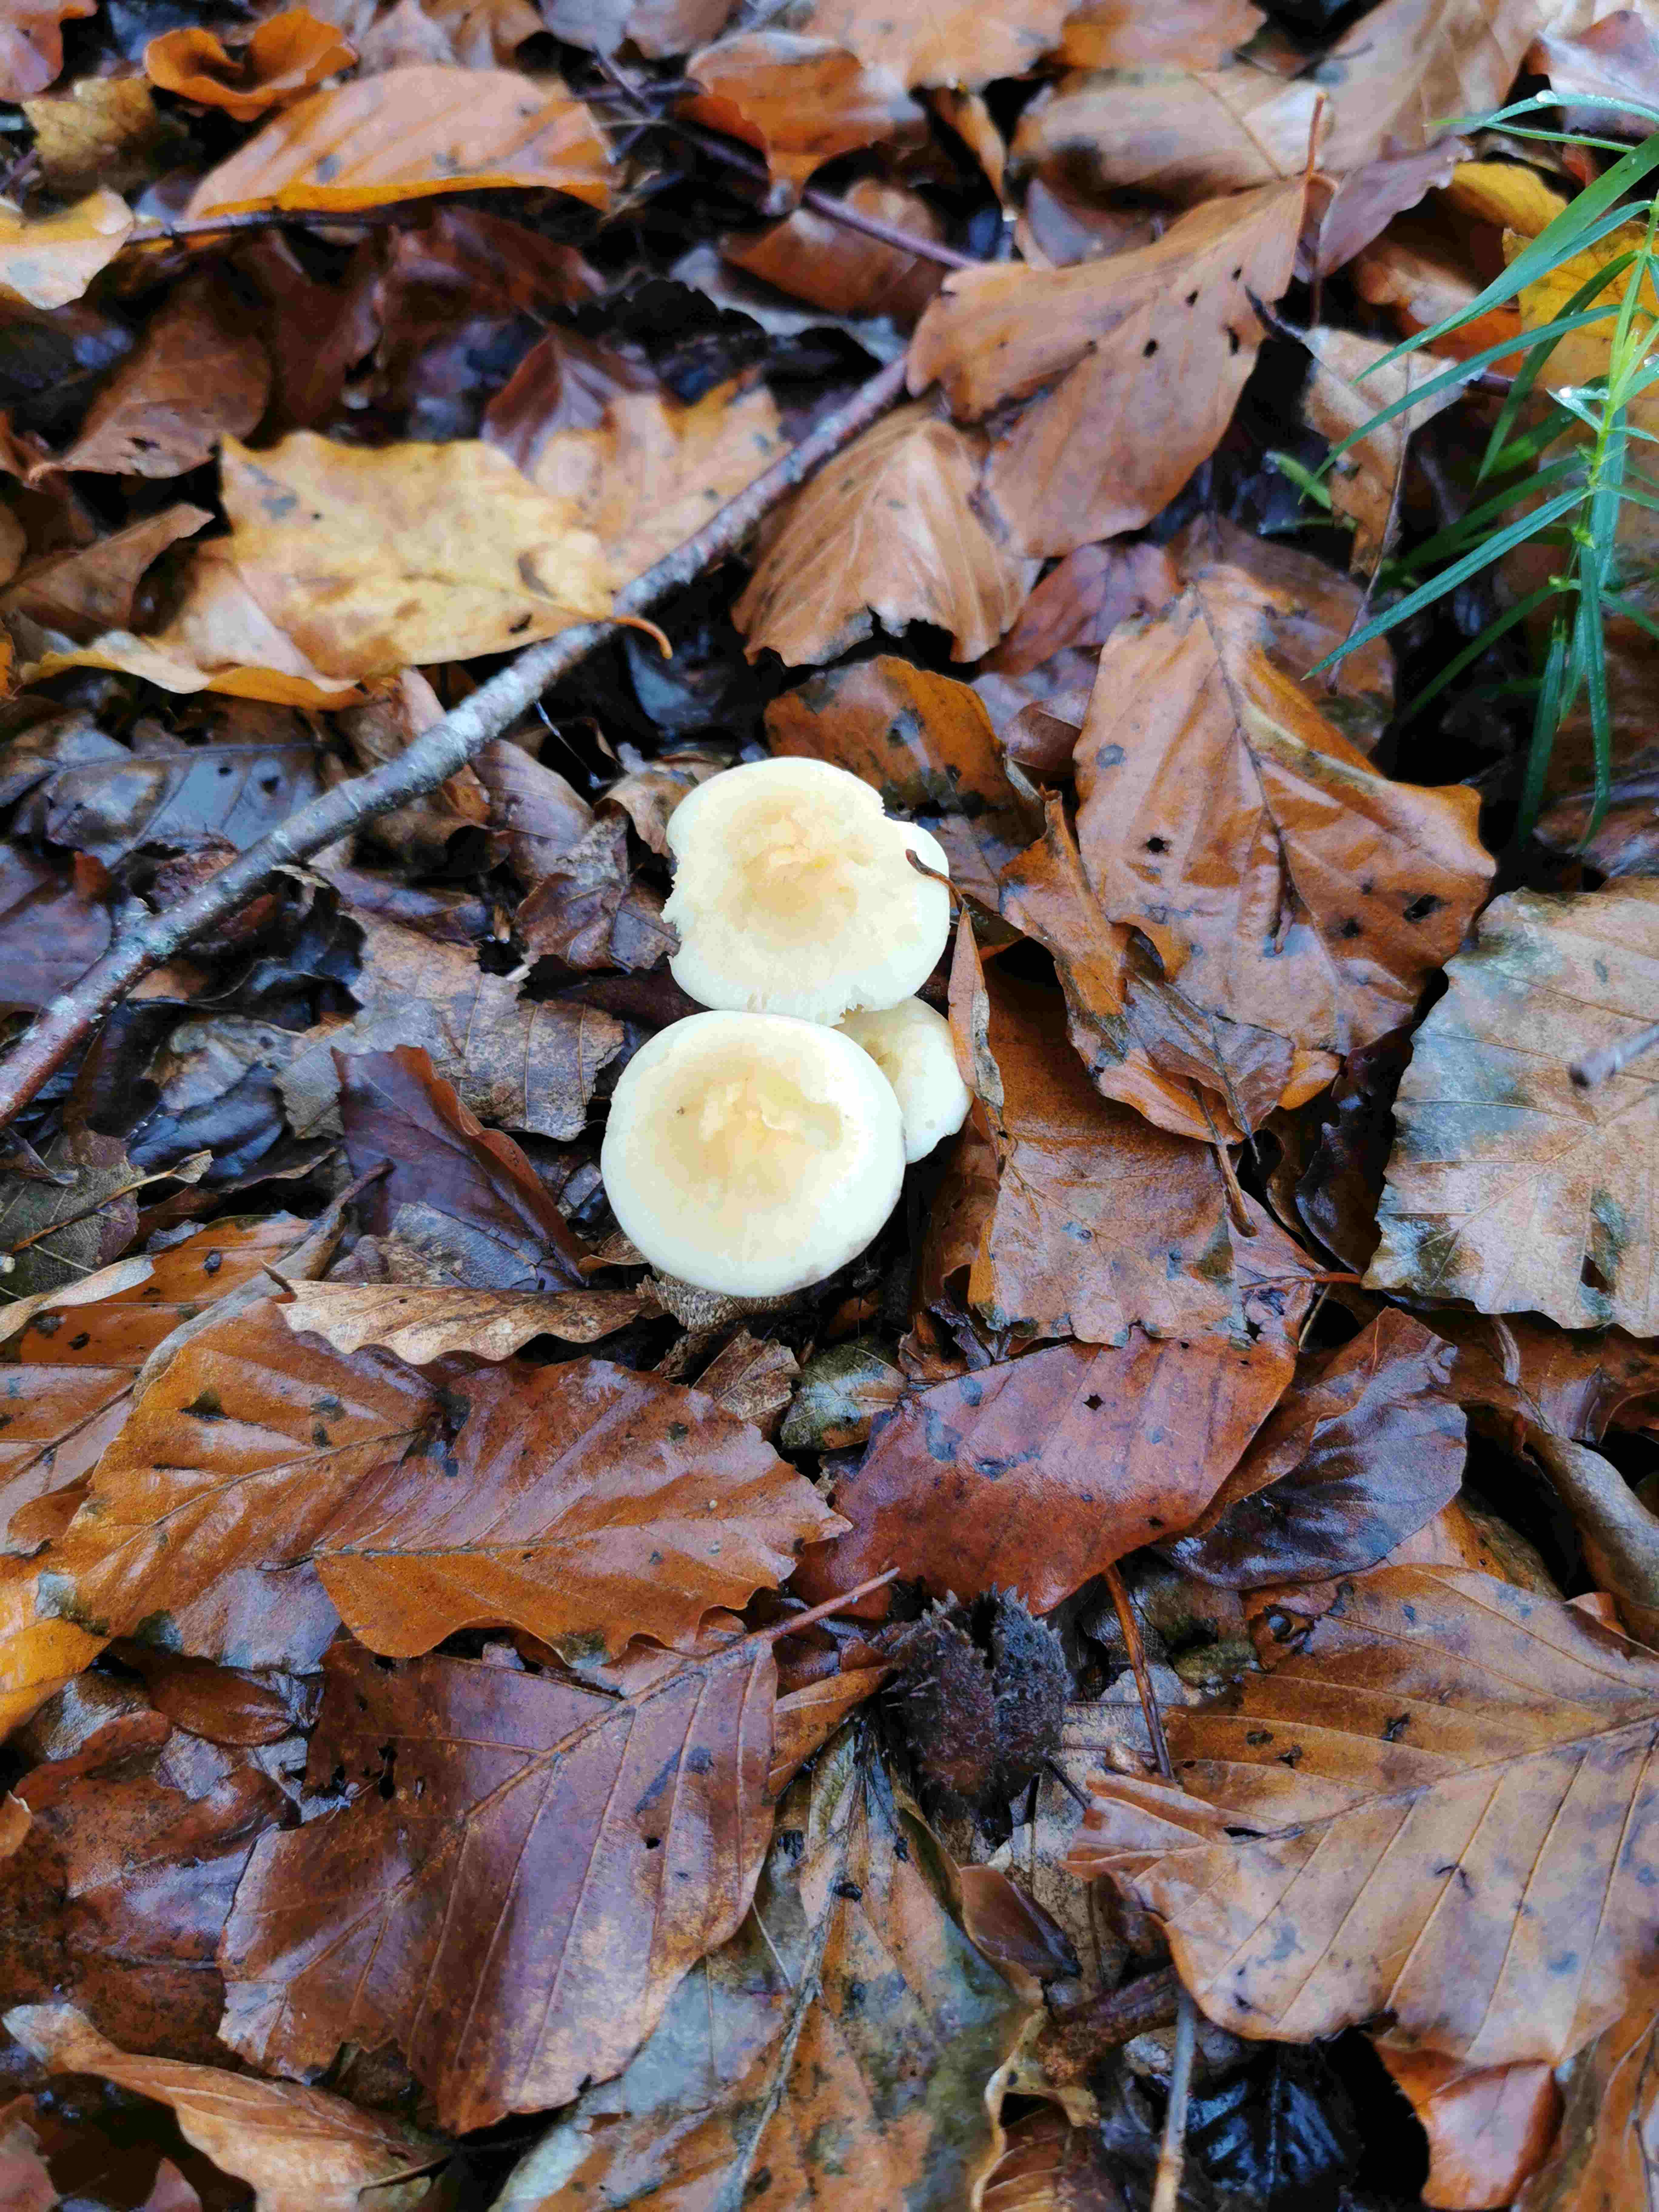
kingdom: Fungi
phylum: Basidiomycota
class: Agaricomycetes
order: Agaricales
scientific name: Agaricales
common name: champignonordenen
